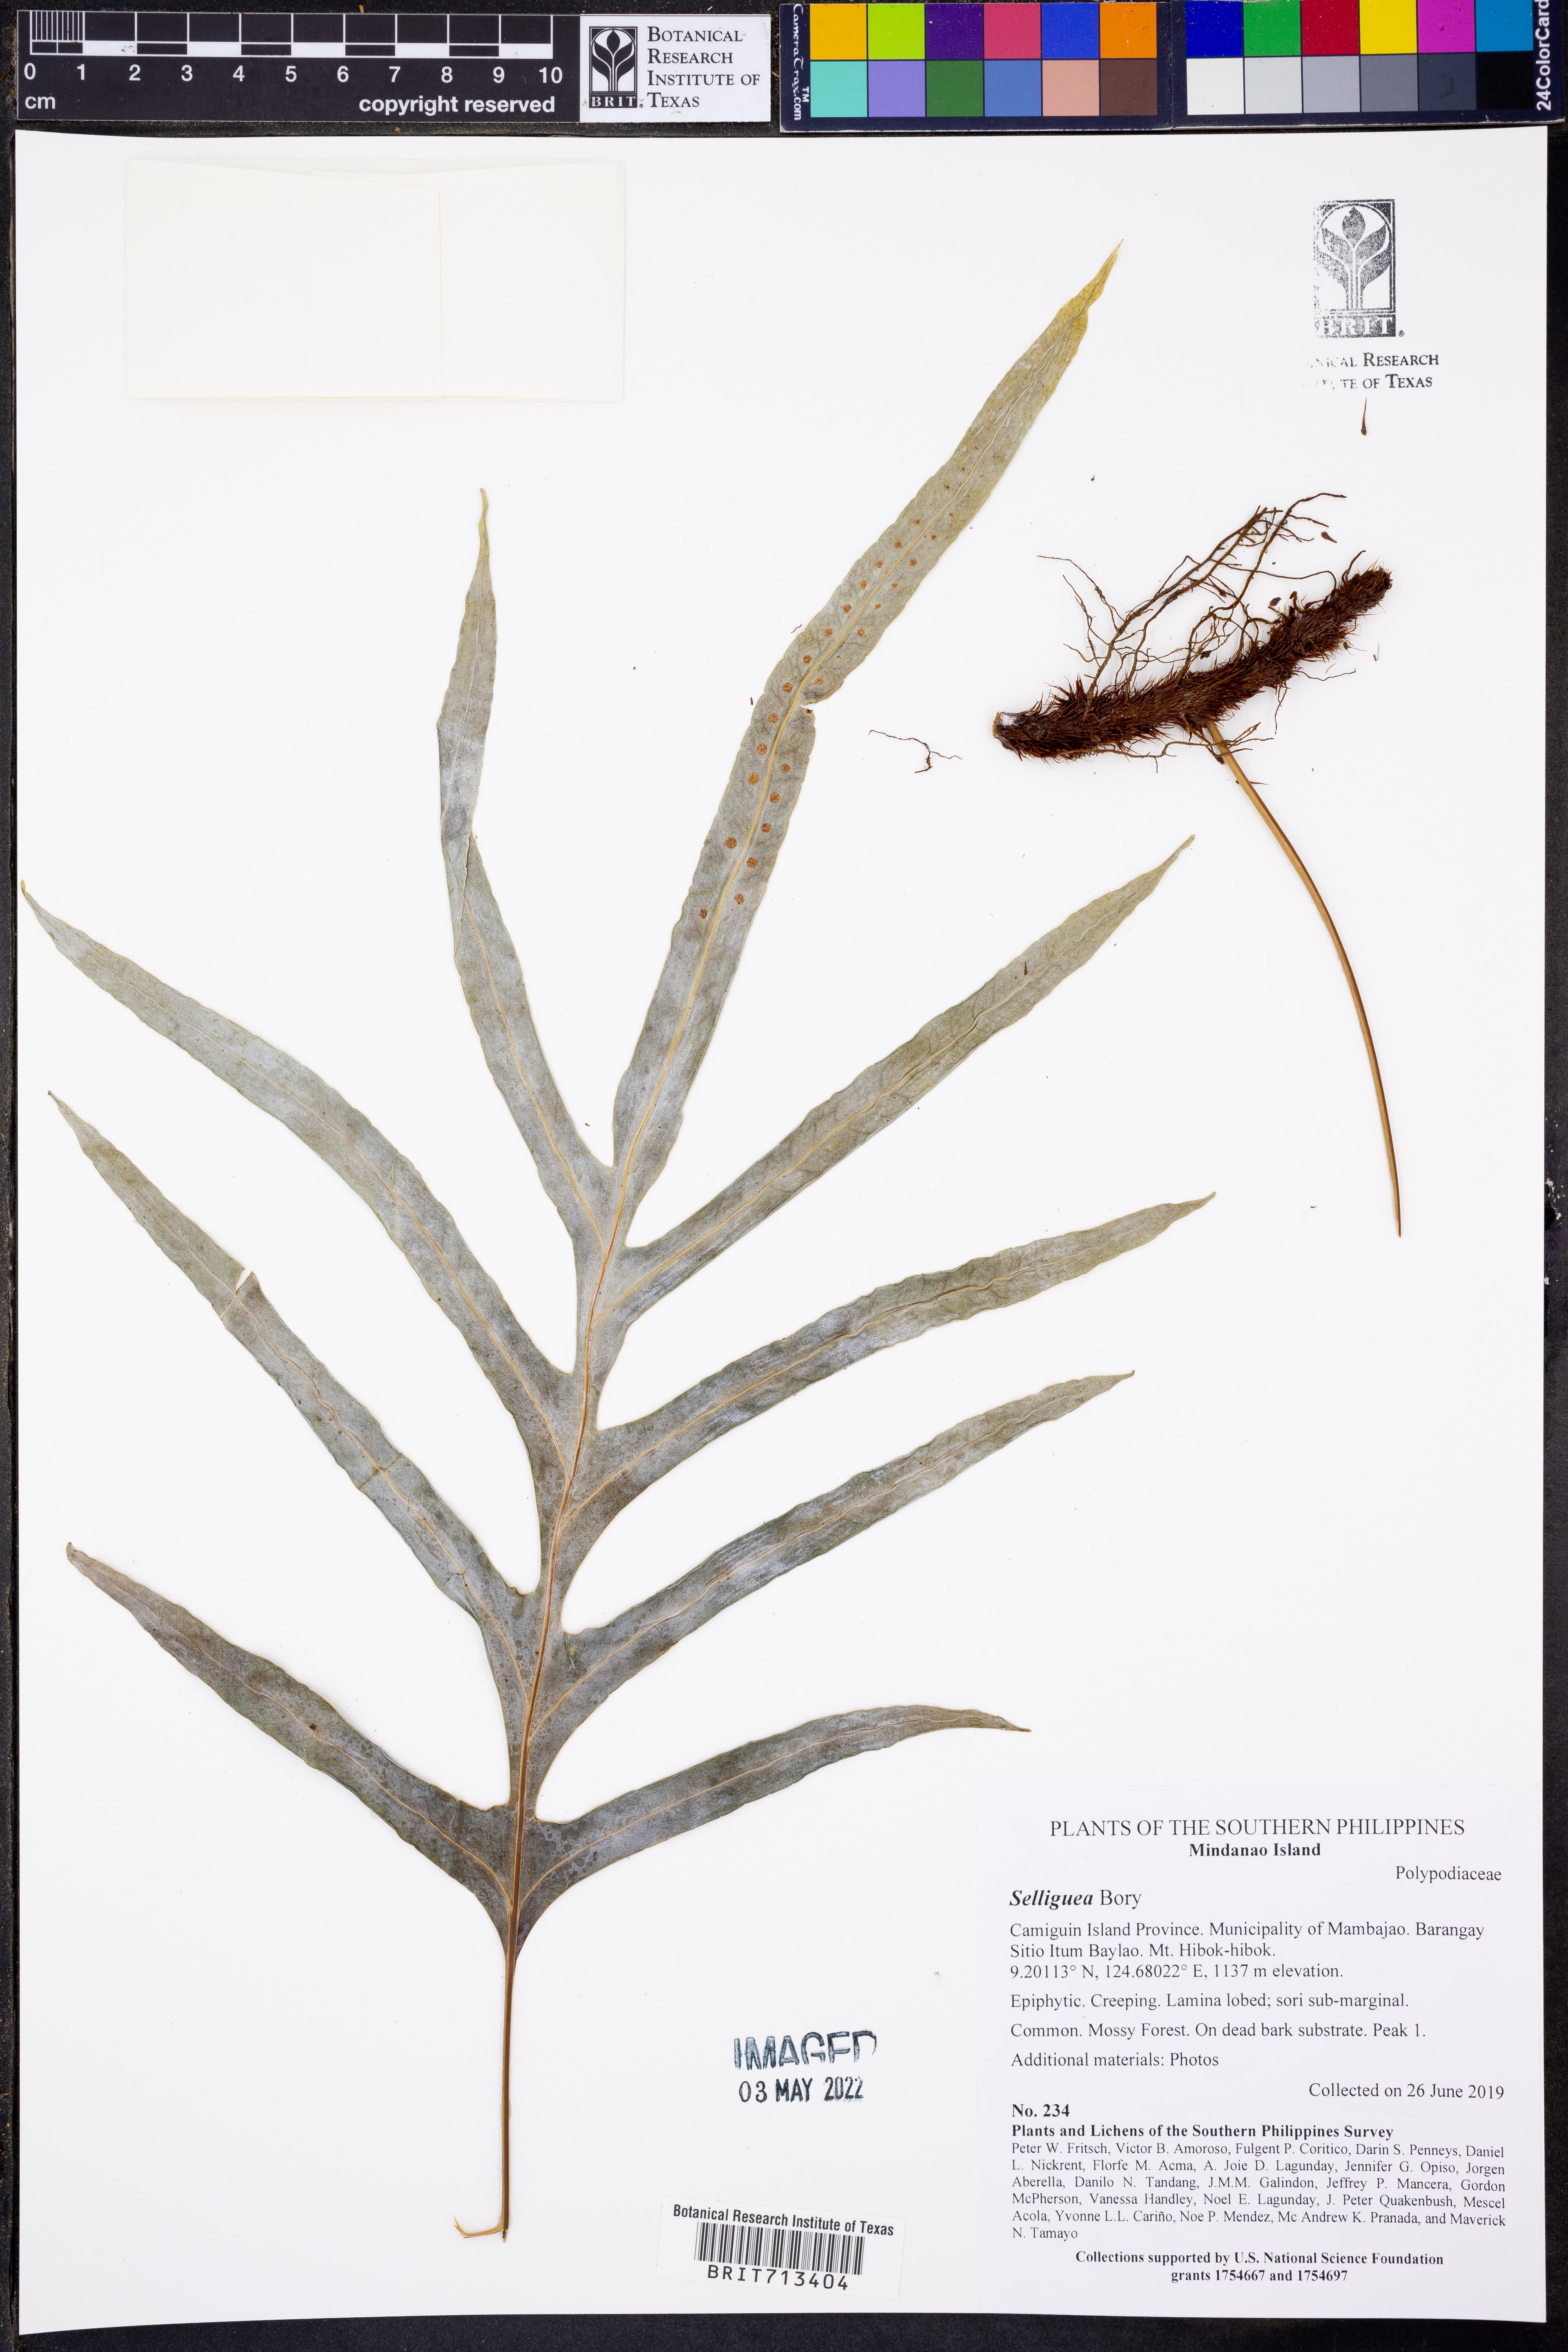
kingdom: Plantae
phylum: Tracheophyta
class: Polypodiopsida
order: Polypodiales
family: Polypodiaceae
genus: Selliguea
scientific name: Selliguea
